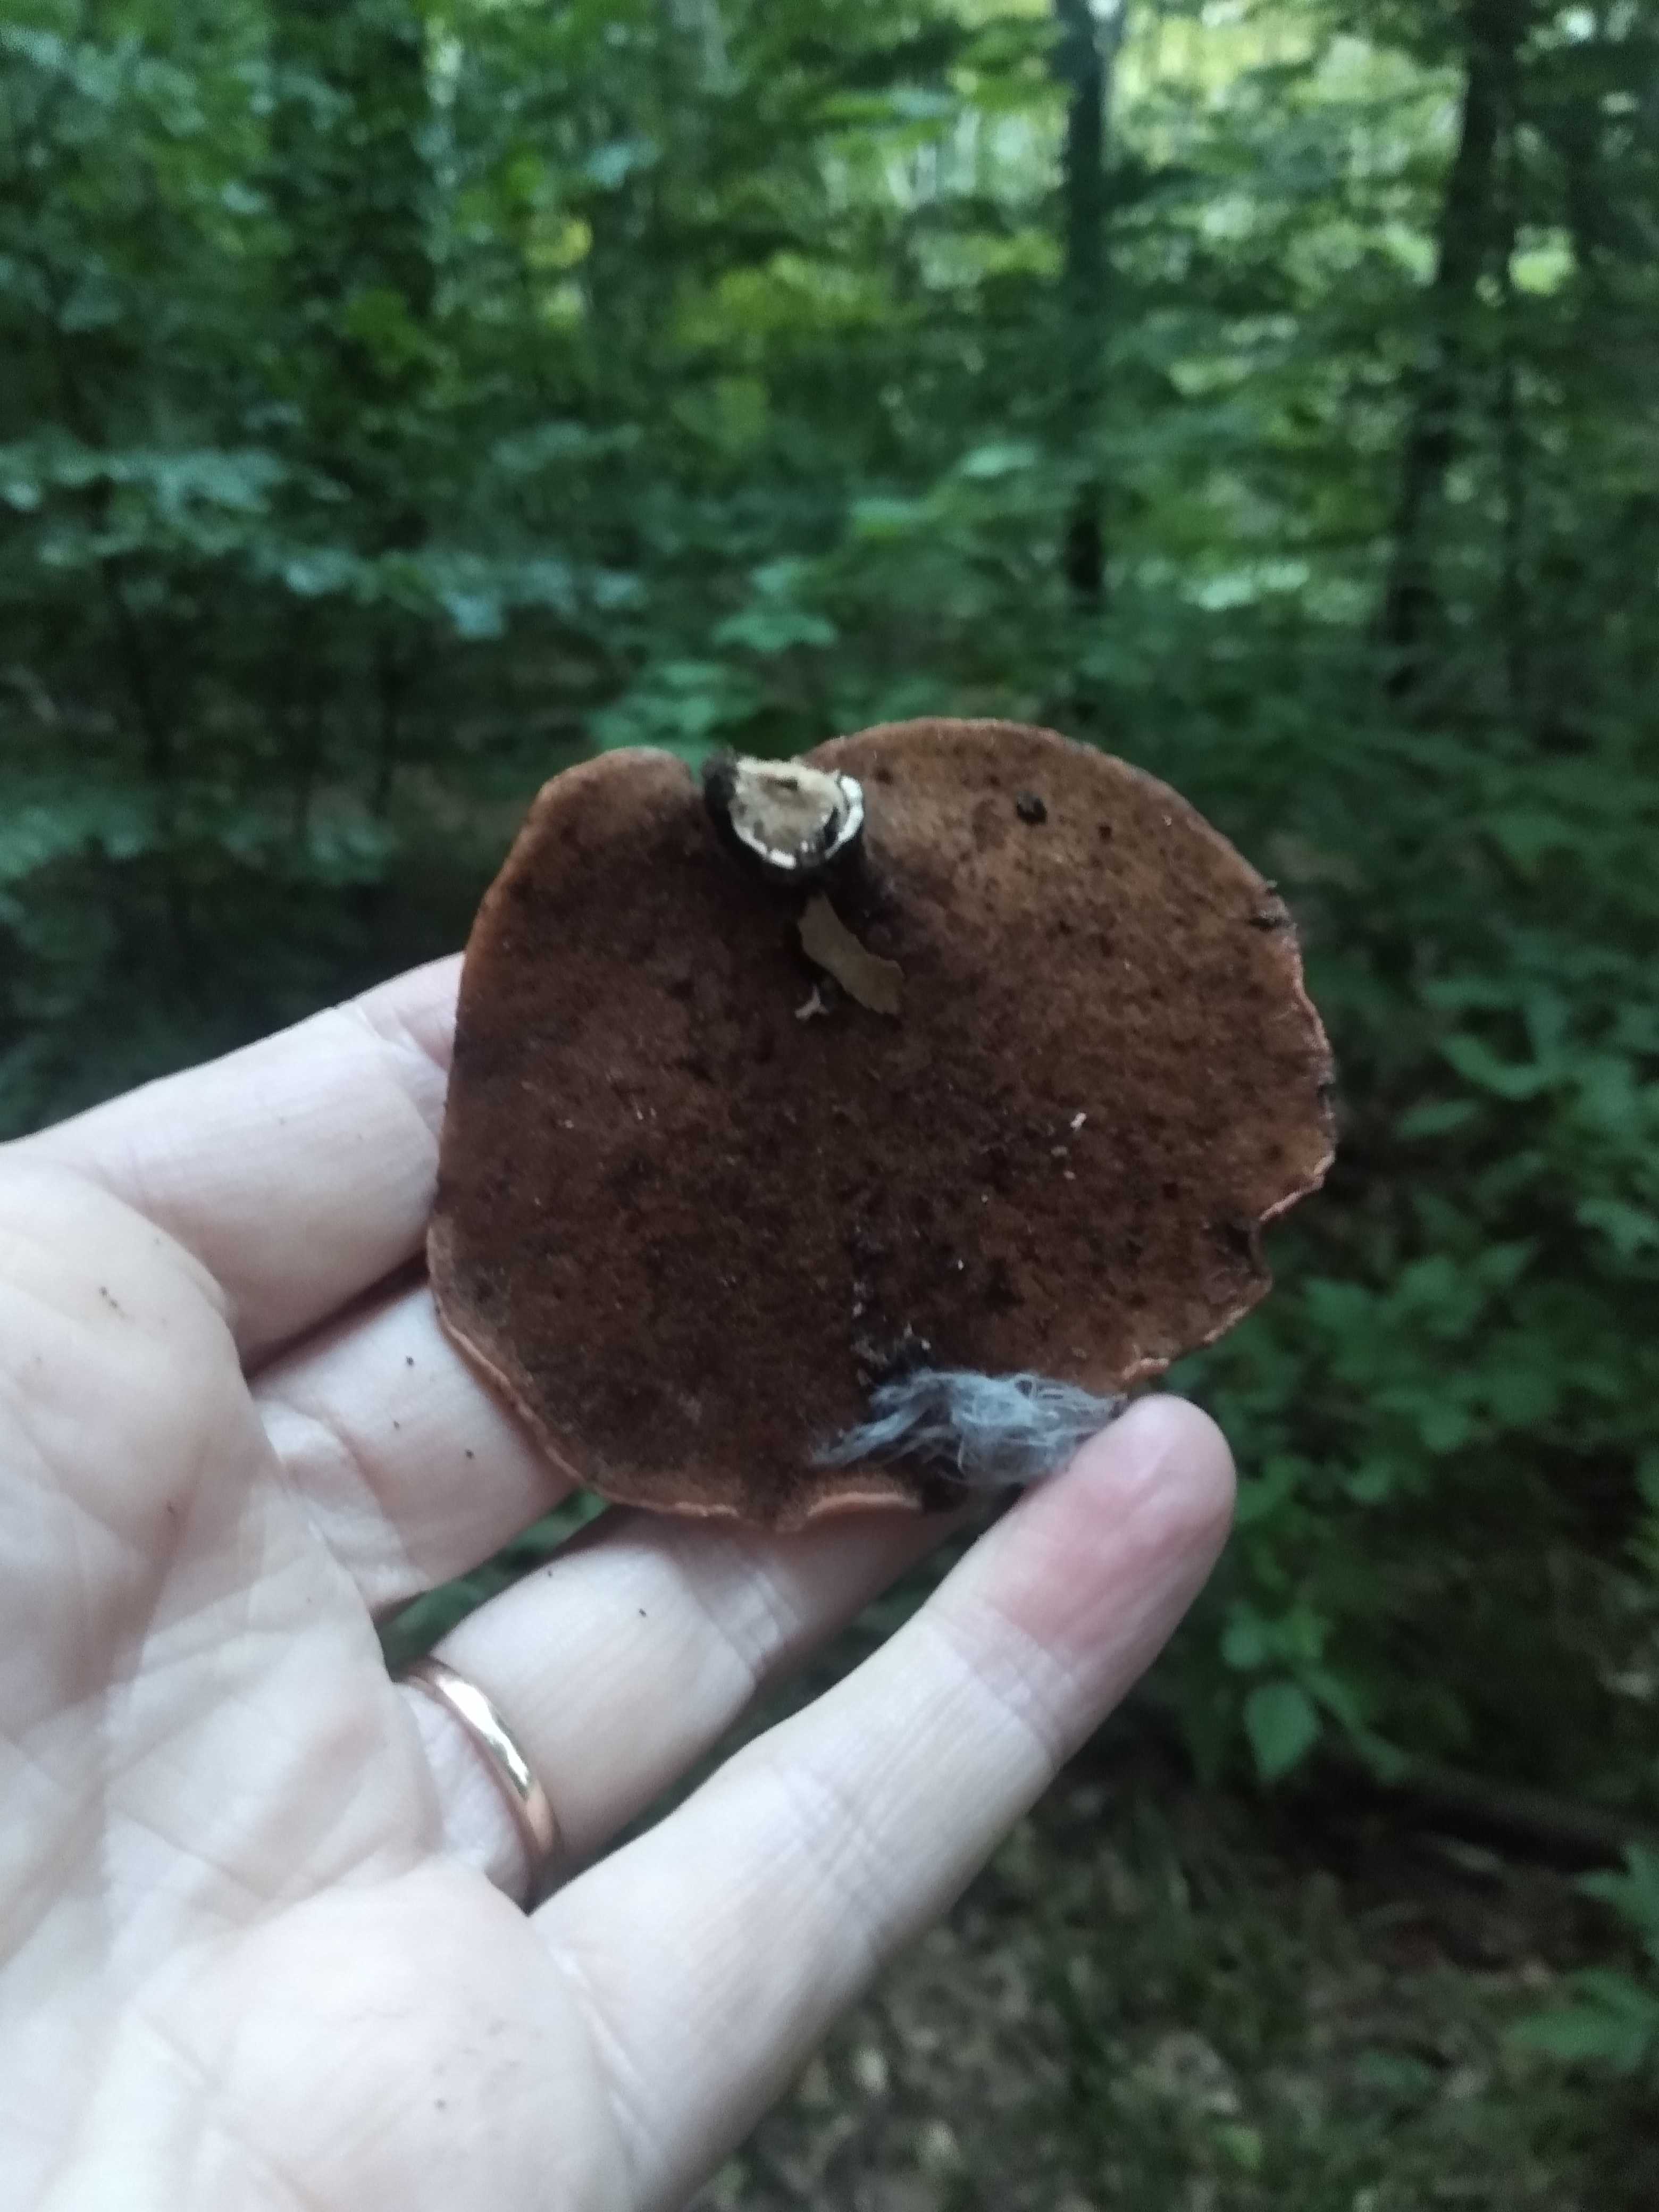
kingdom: Fungi
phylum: Basidiomycota
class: Agaricomycetes
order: Polyporales
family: Polyporaceae
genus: Cerioporus
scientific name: Cerioporus varius
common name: foranderlig stilkporesvamp
